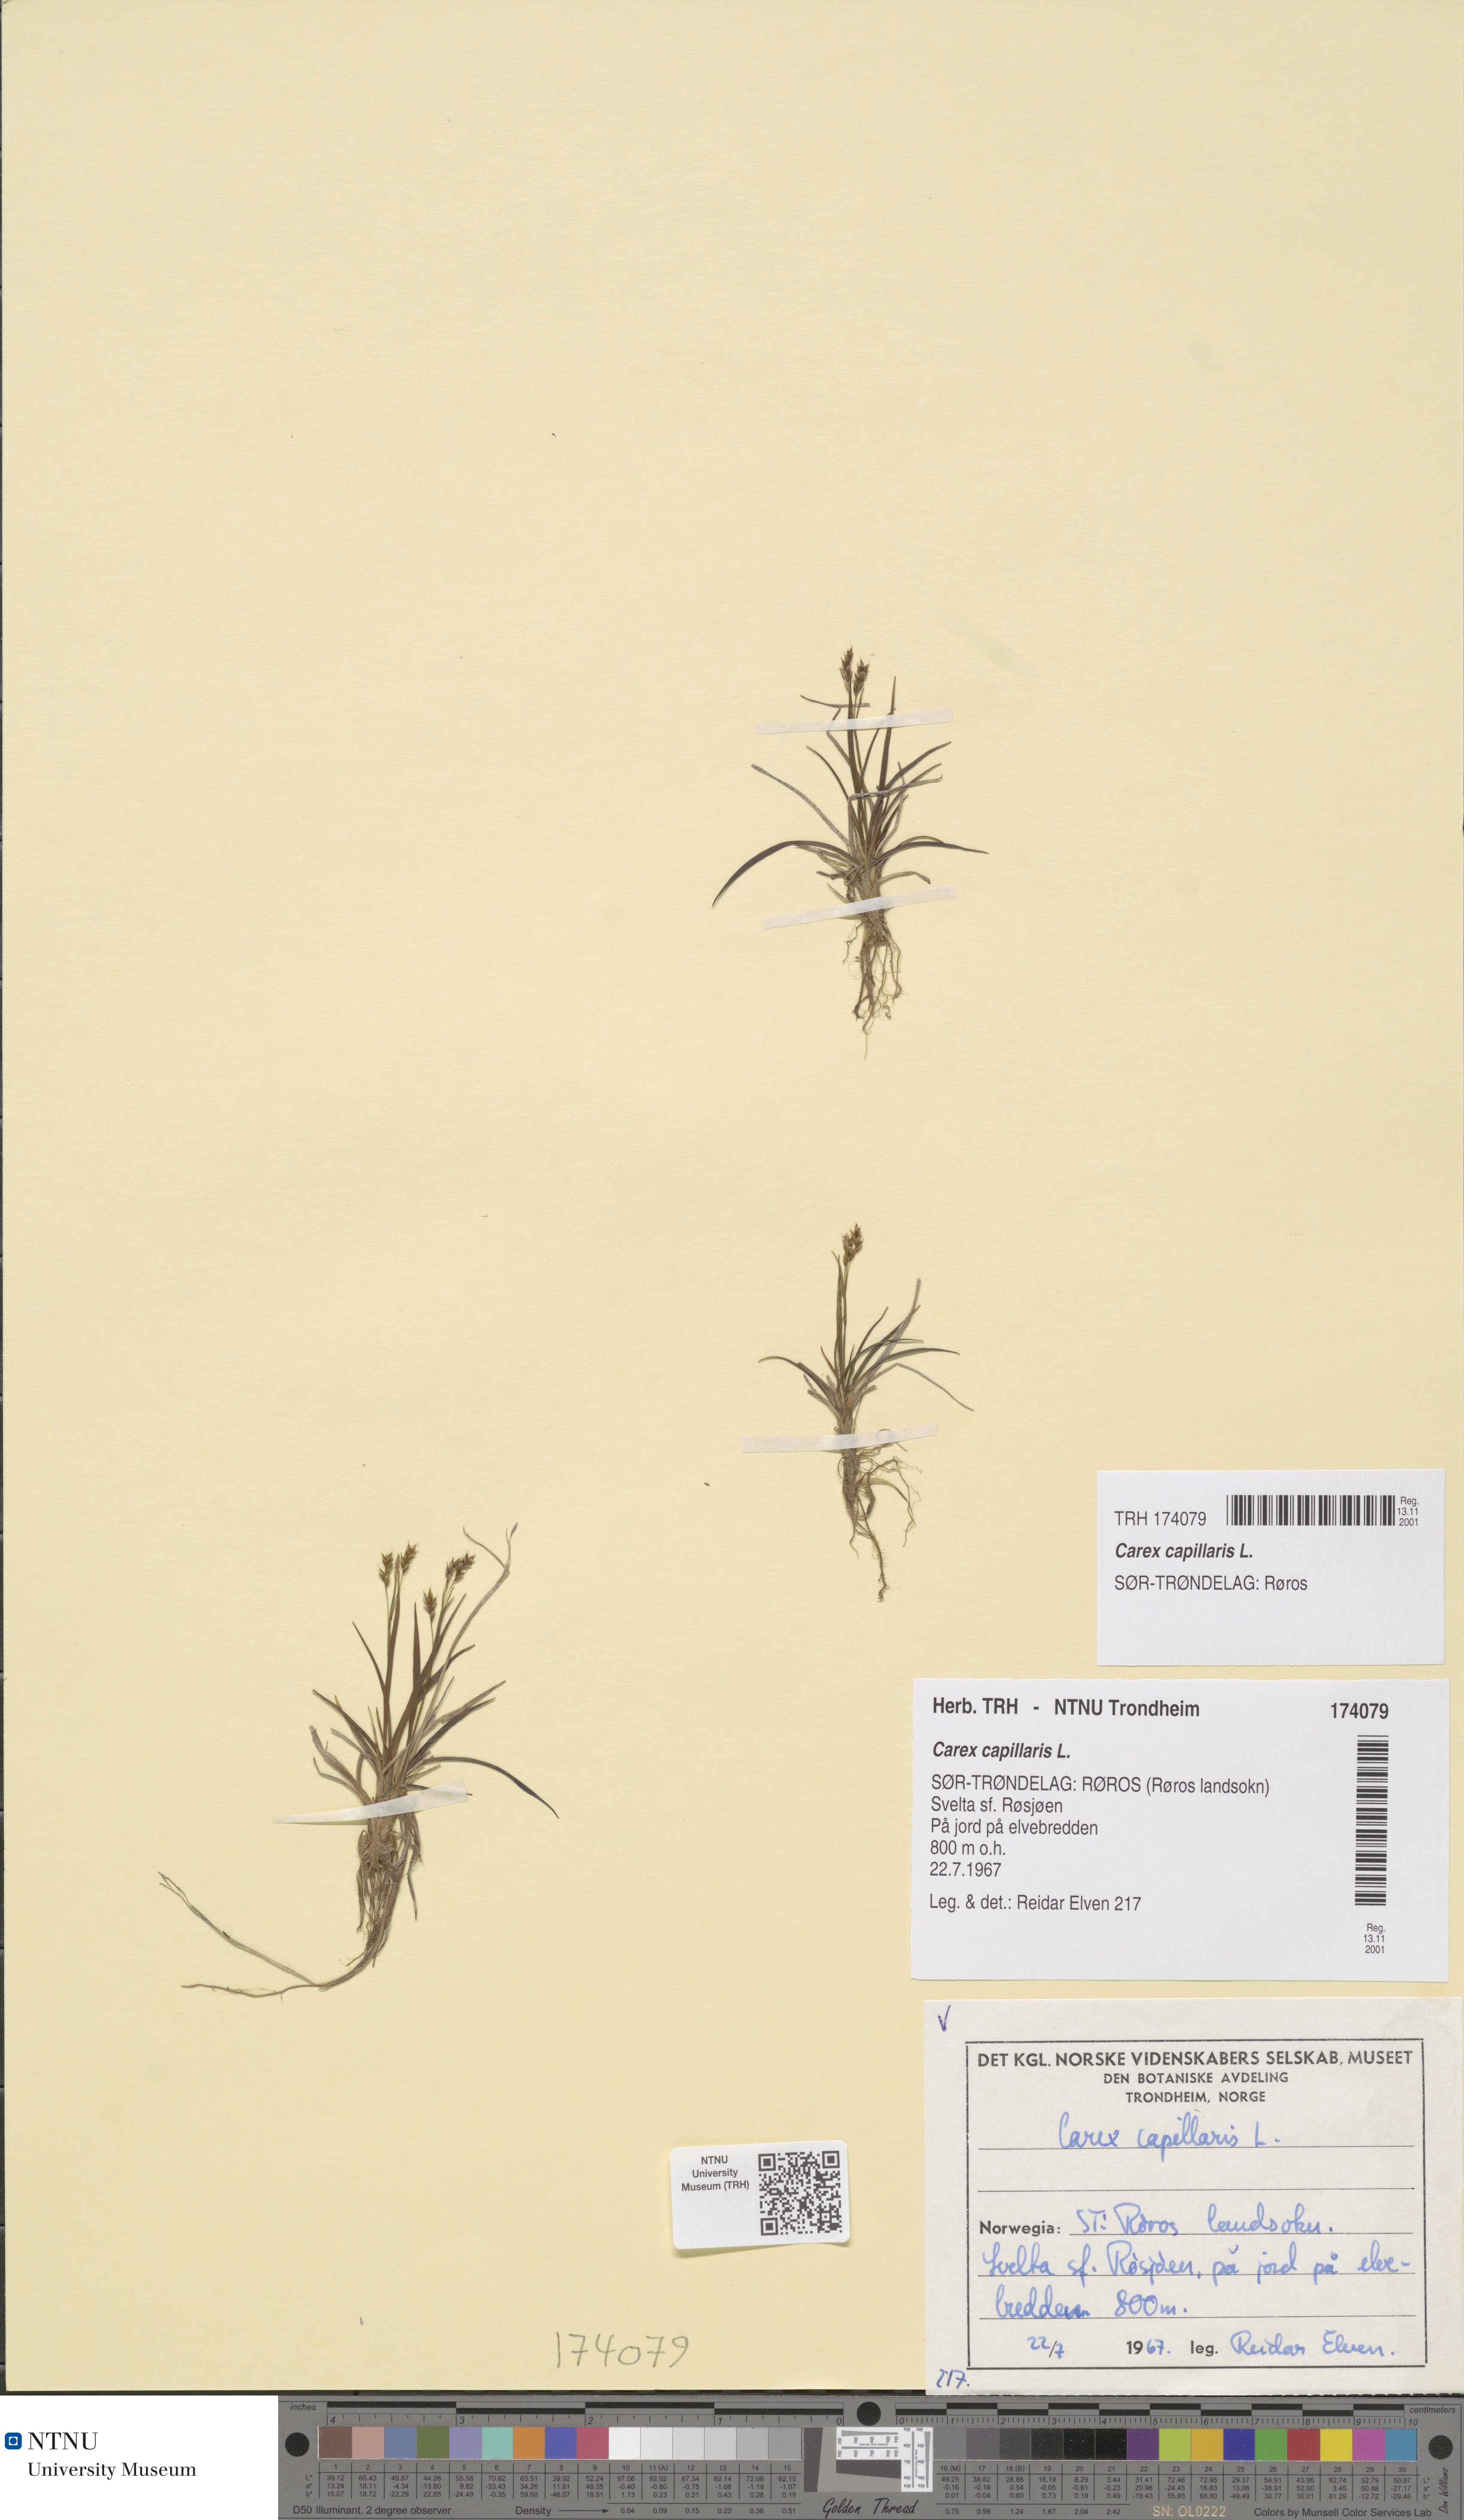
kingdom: Plantae
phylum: Tracheophyta
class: Liliopsida
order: Poales
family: Cyperaceae
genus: Carex
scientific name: Carex capillaris
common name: Hair sedge
